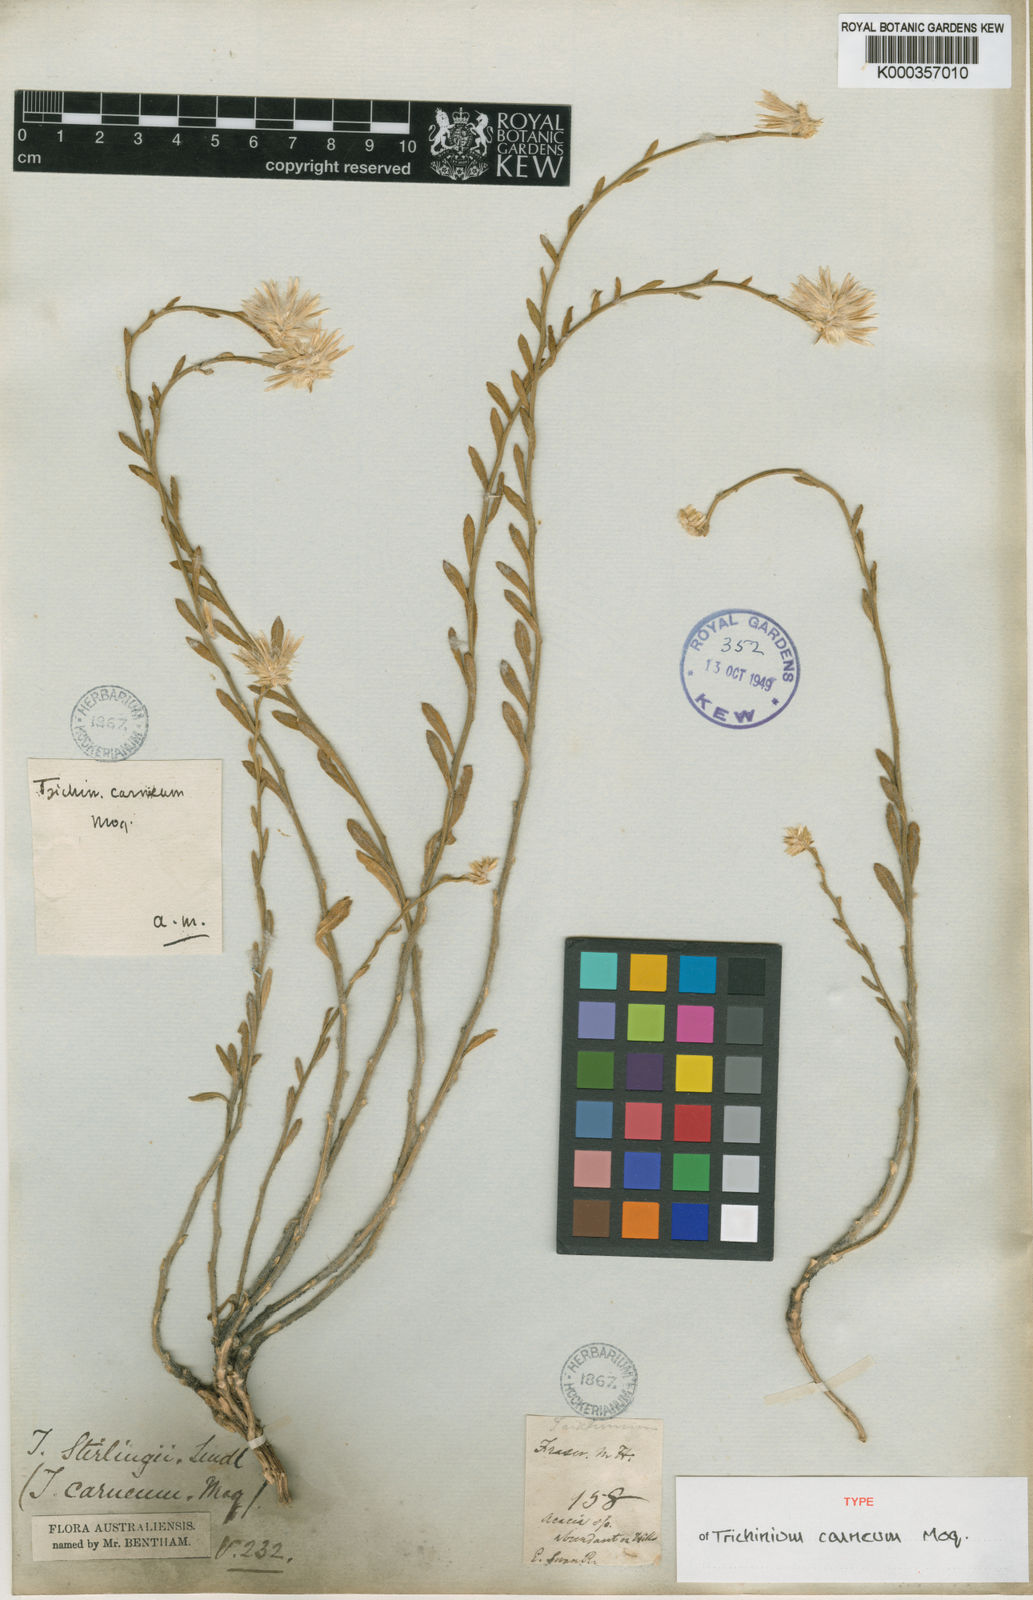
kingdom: Plantae
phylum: Tracheophyta
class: Magnoliopsida
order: Caryophyllales
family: Amaranthaceae
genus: Ptilotus
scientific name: Ptilotus stirlingii
